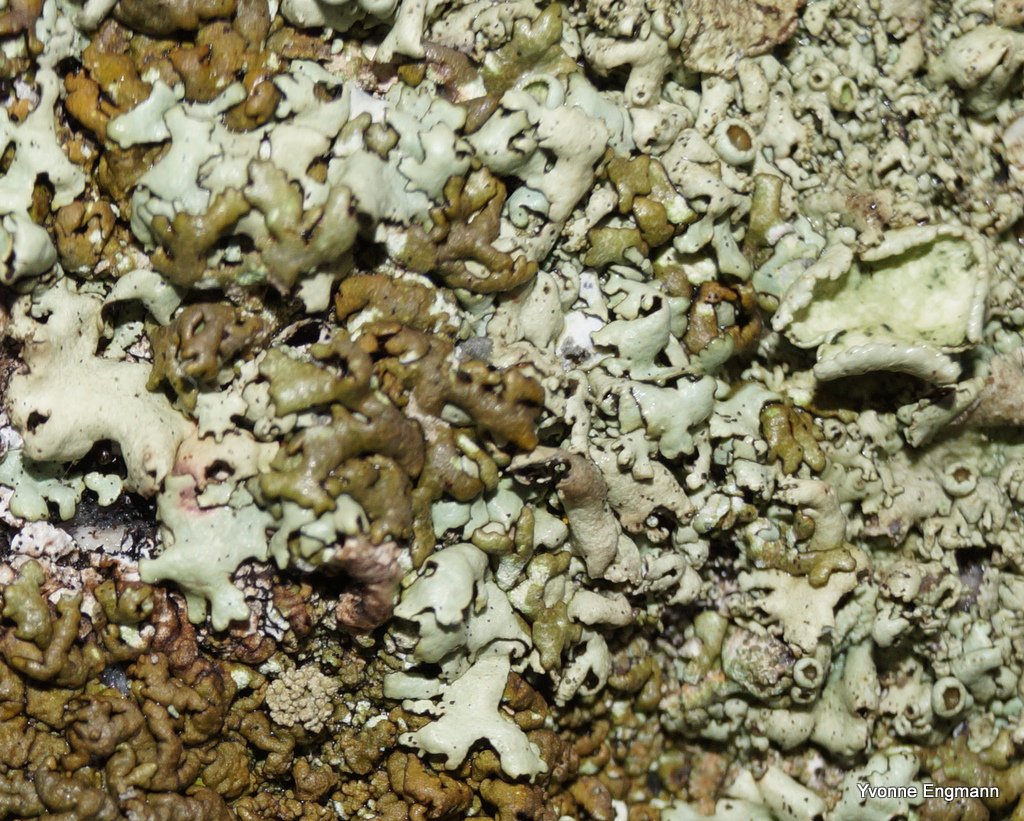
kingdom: Fungi
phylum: Ascomycota
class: Lecanoromycetes
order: Lecanorales
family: Parmeliaceae
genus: Xanthoparmelia
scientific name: Xanthoparmelia stenophylla
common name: Shingled rock shield
